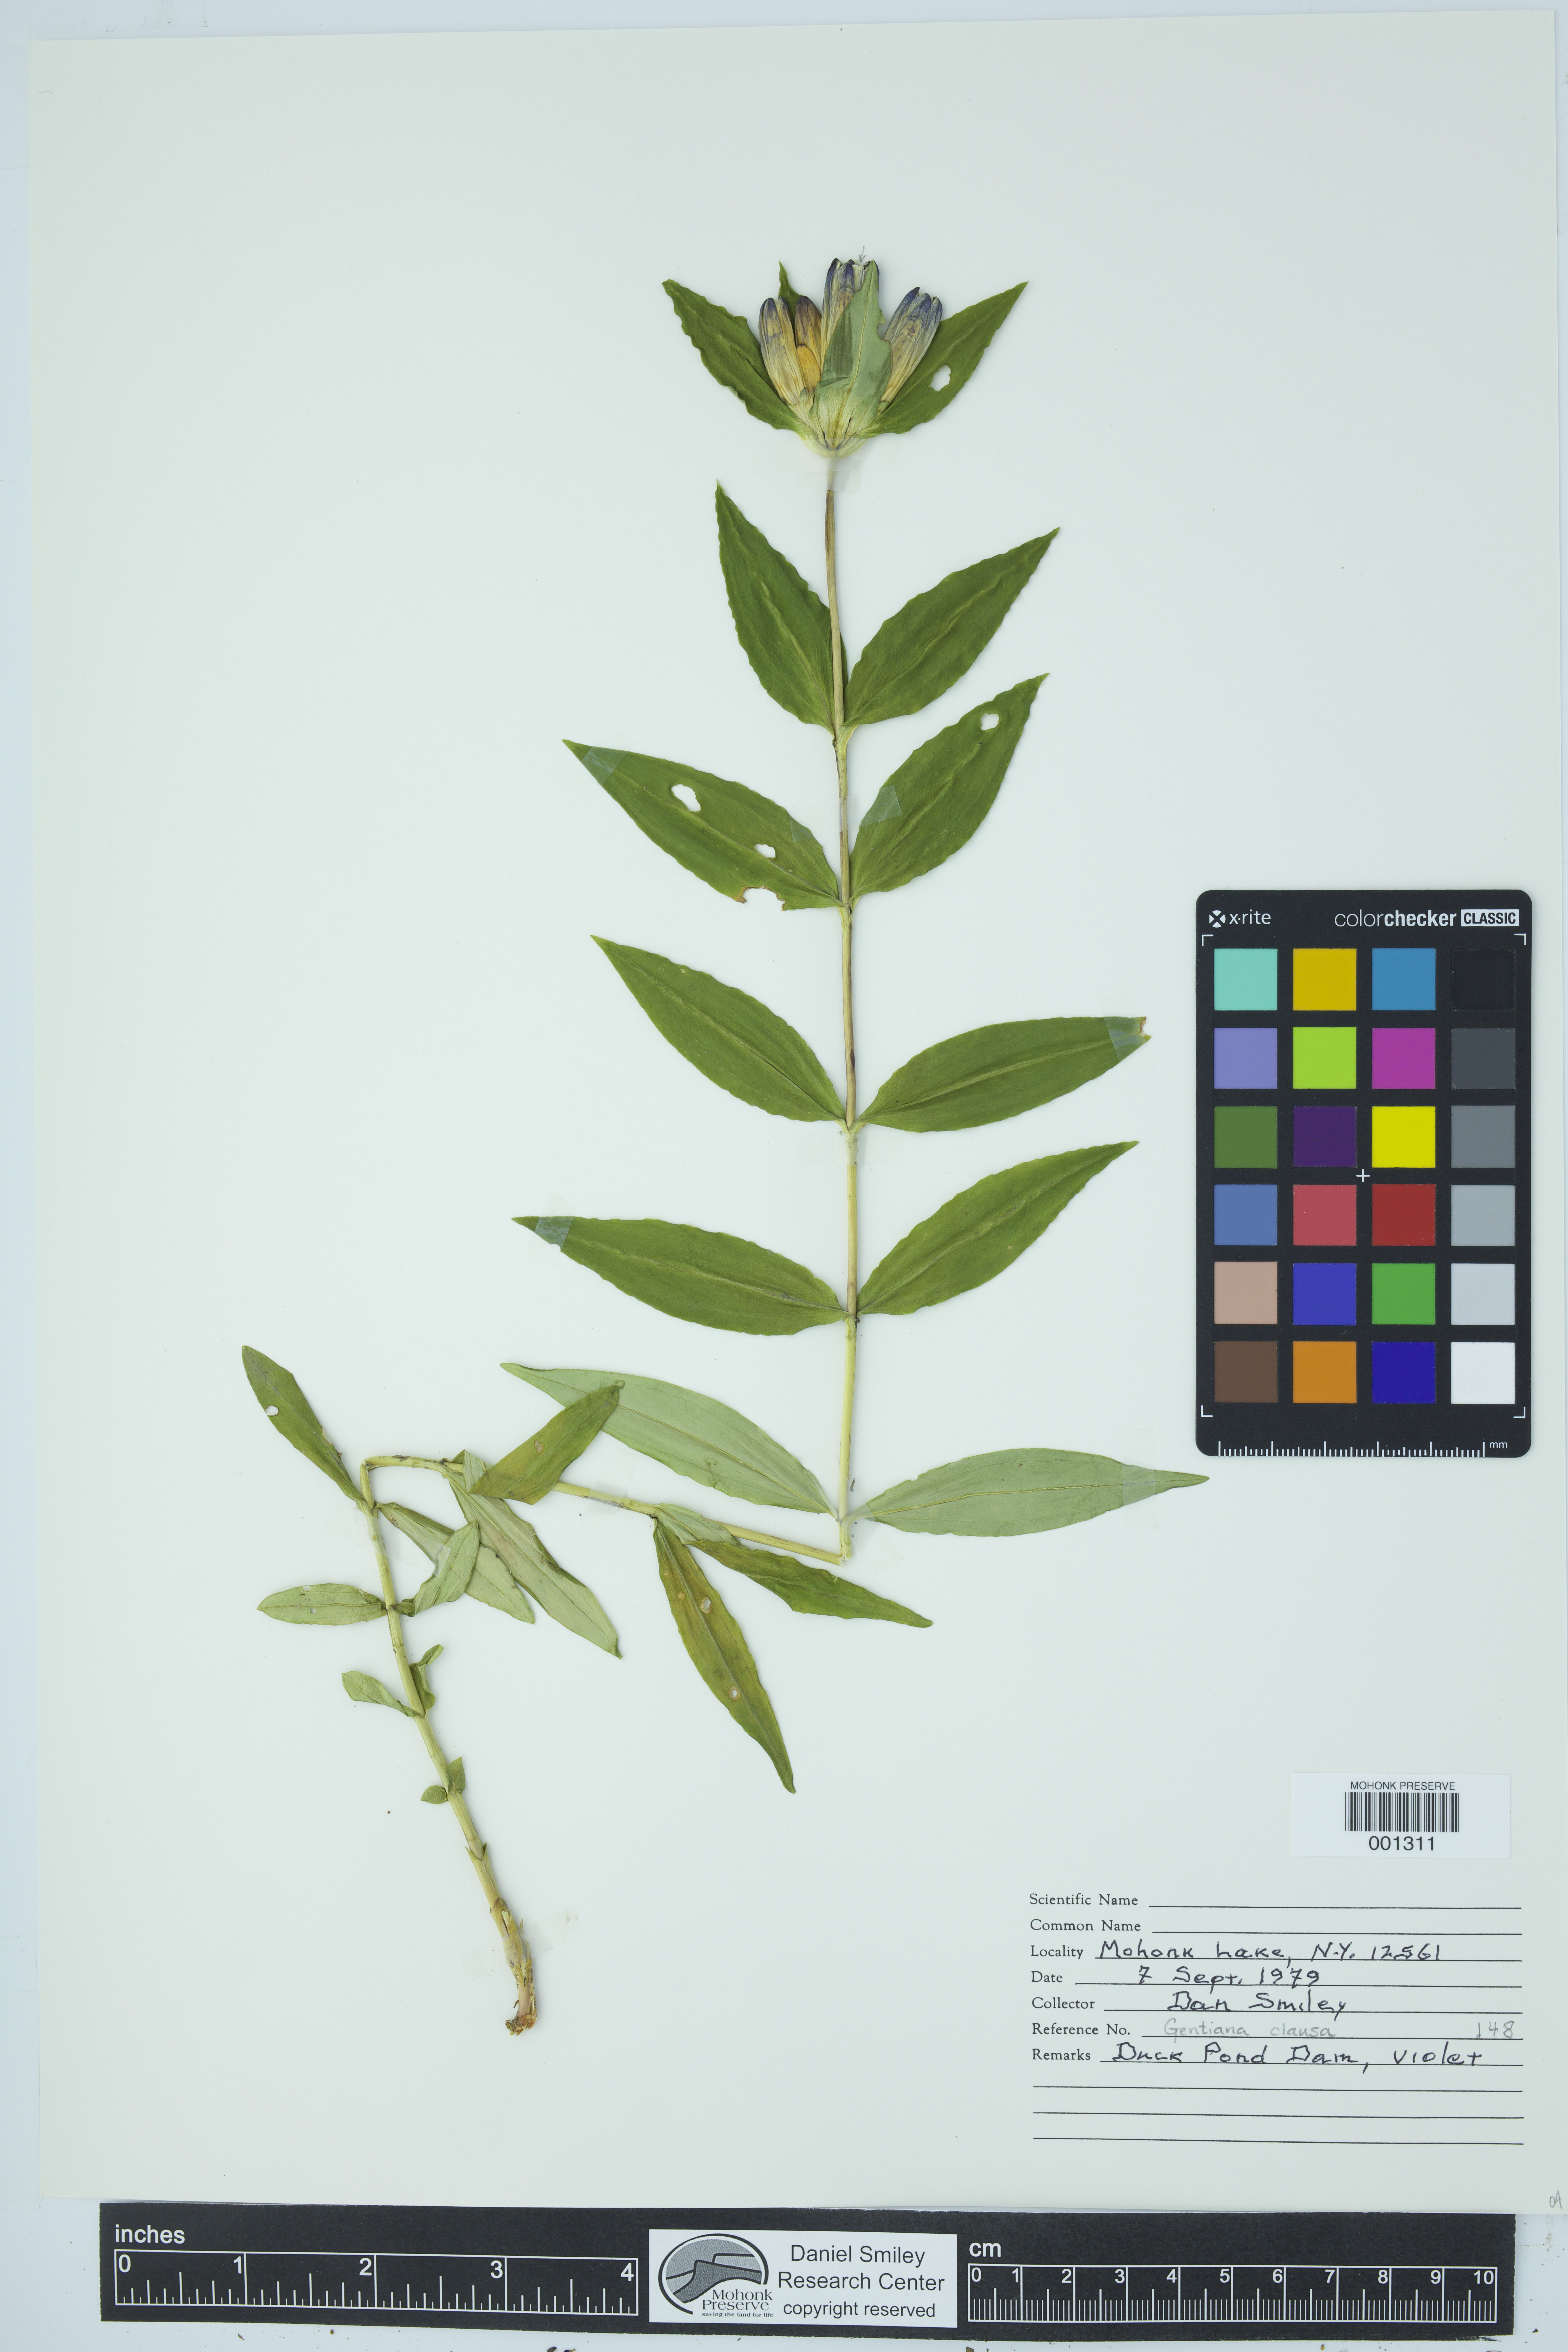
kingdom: Plantae
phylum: Tracheophyta
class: Magnoliopsida
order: Gentianales
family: Gentianaceae
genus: Gentiana
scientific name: Gentiana clausa
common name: Blind gentian
